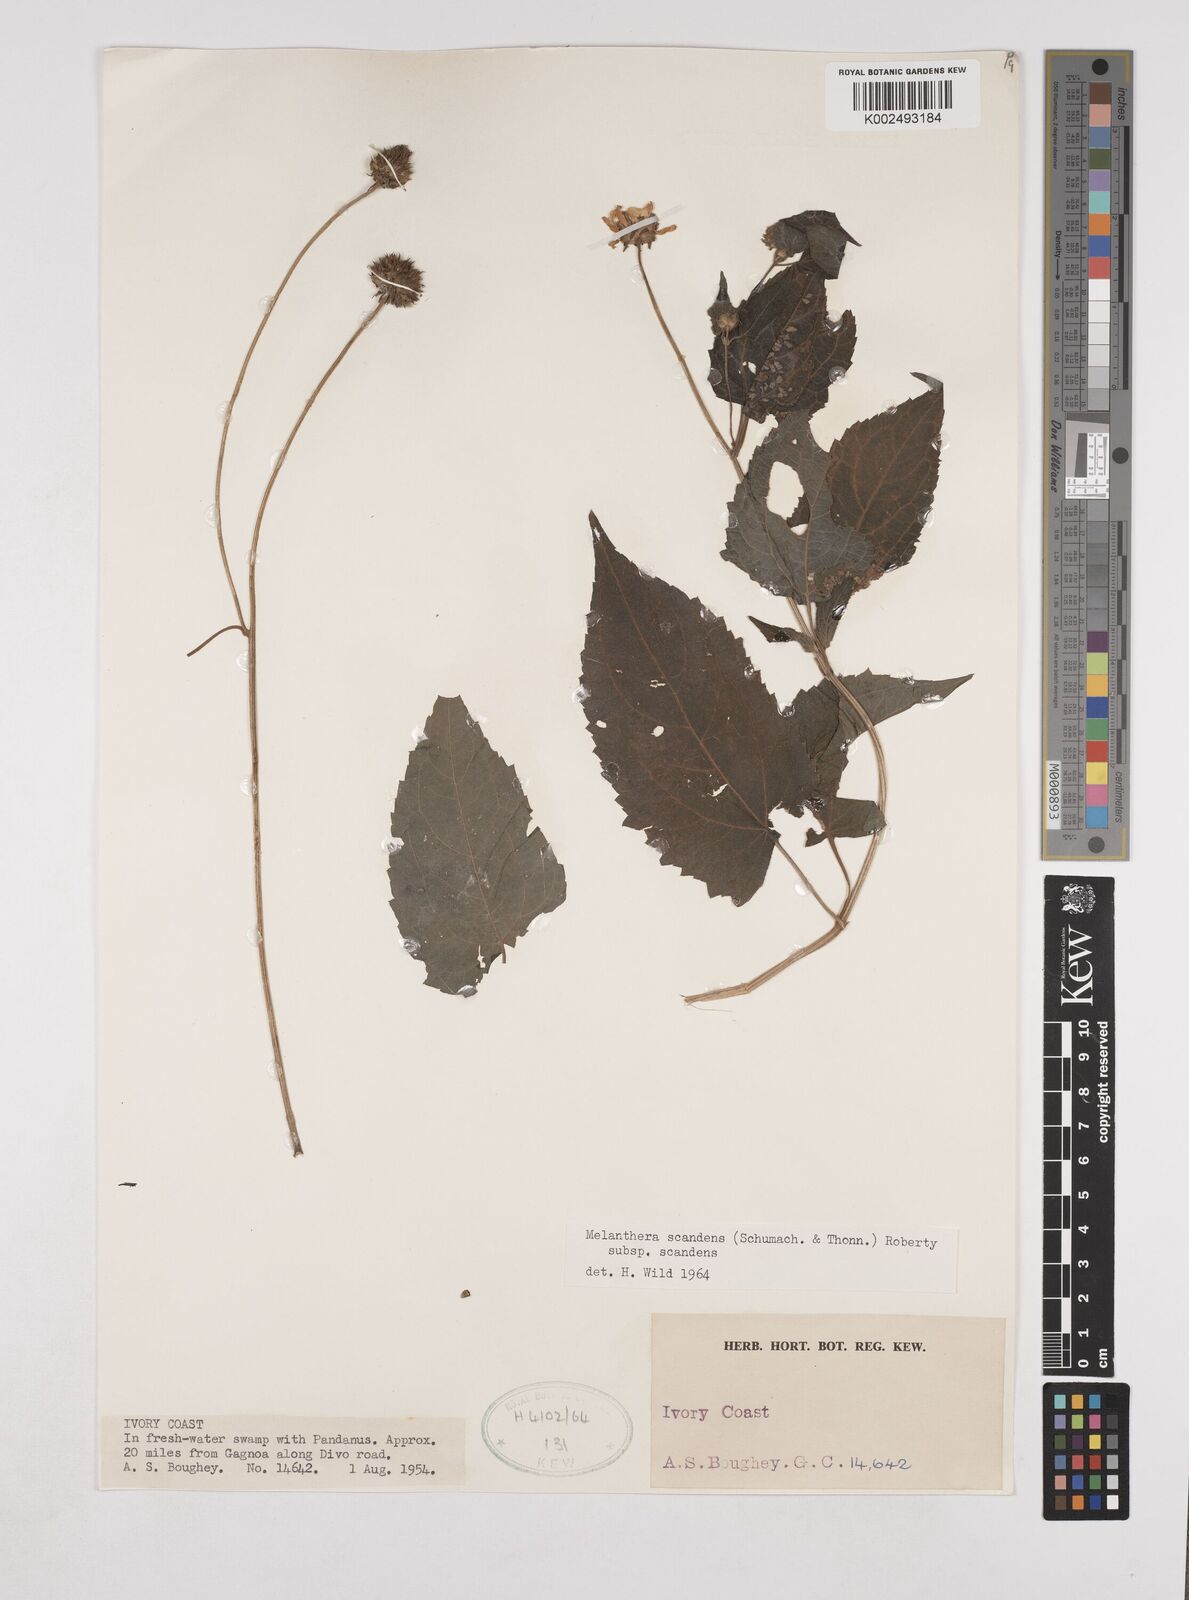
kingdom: Plantae
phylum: Tracheophyta
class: Magnoliopsida
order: Asterales
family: Asteraceae
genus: Lipotriche
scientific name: Lipotriche scandens
